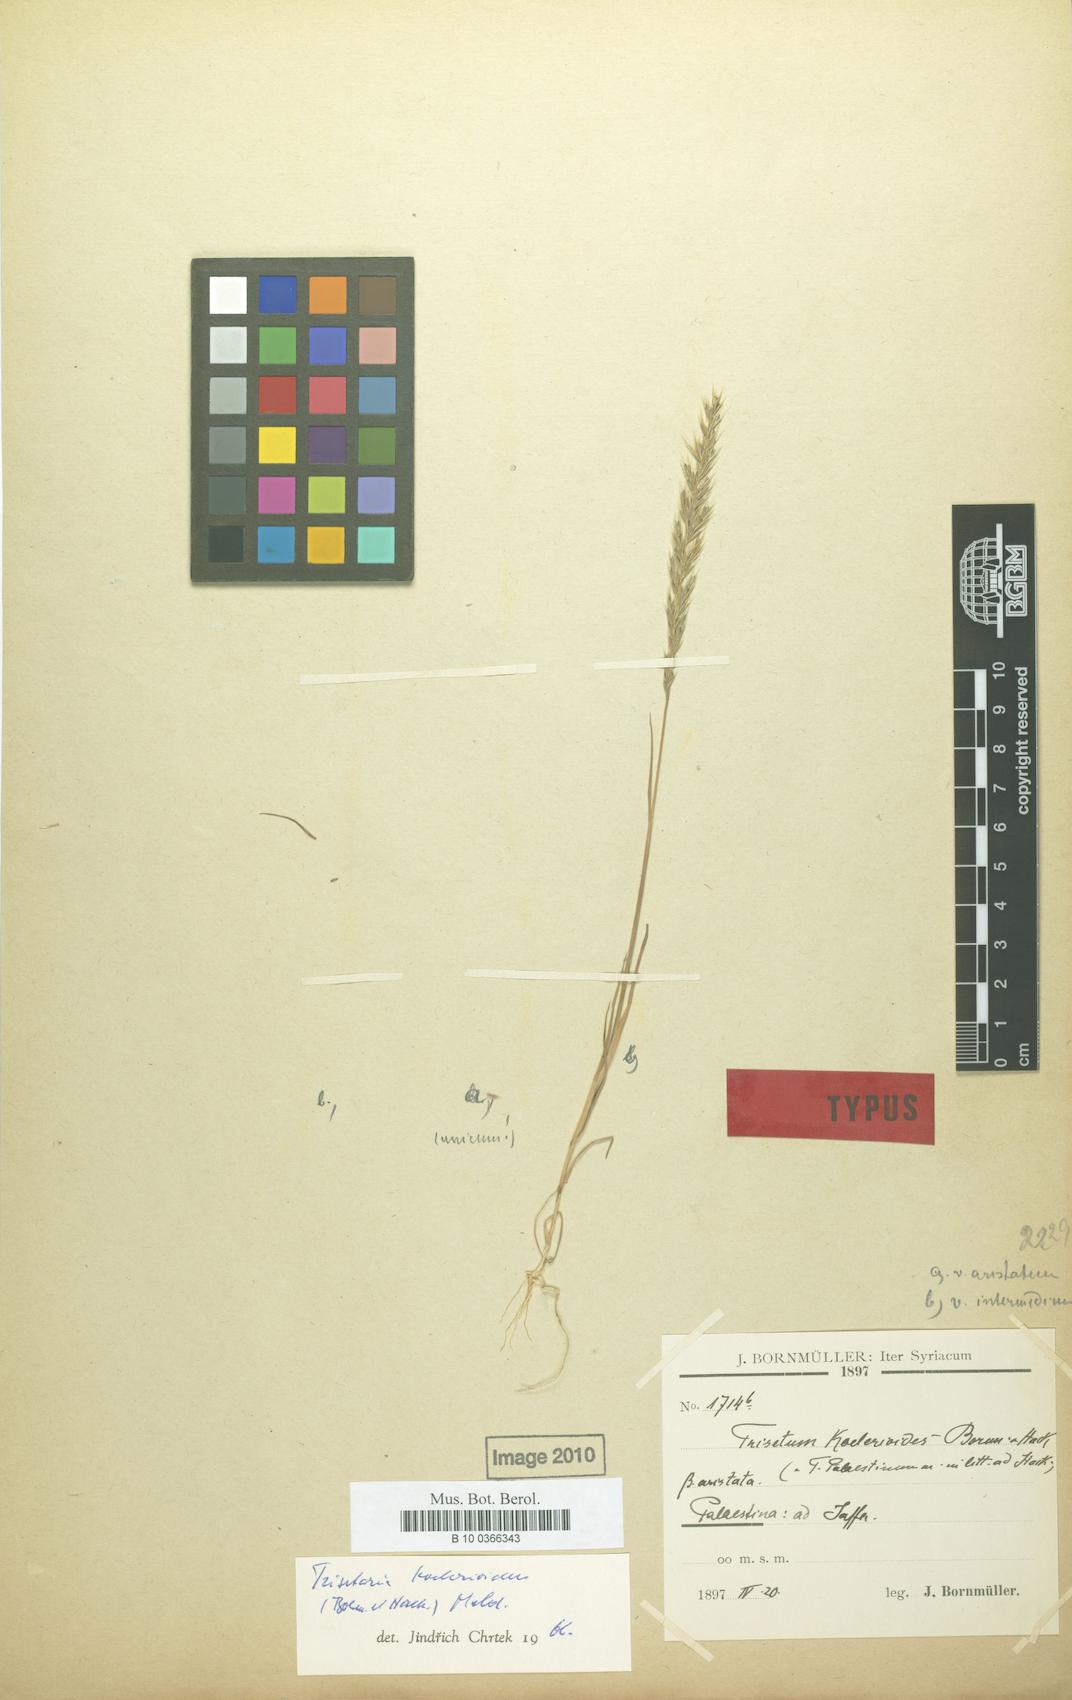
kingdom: Plantae
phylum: Tracheophyta
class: Liliopsida
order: Poales
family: Poaceae
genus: Trisetaria
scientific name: Trisetaria koelerioides
